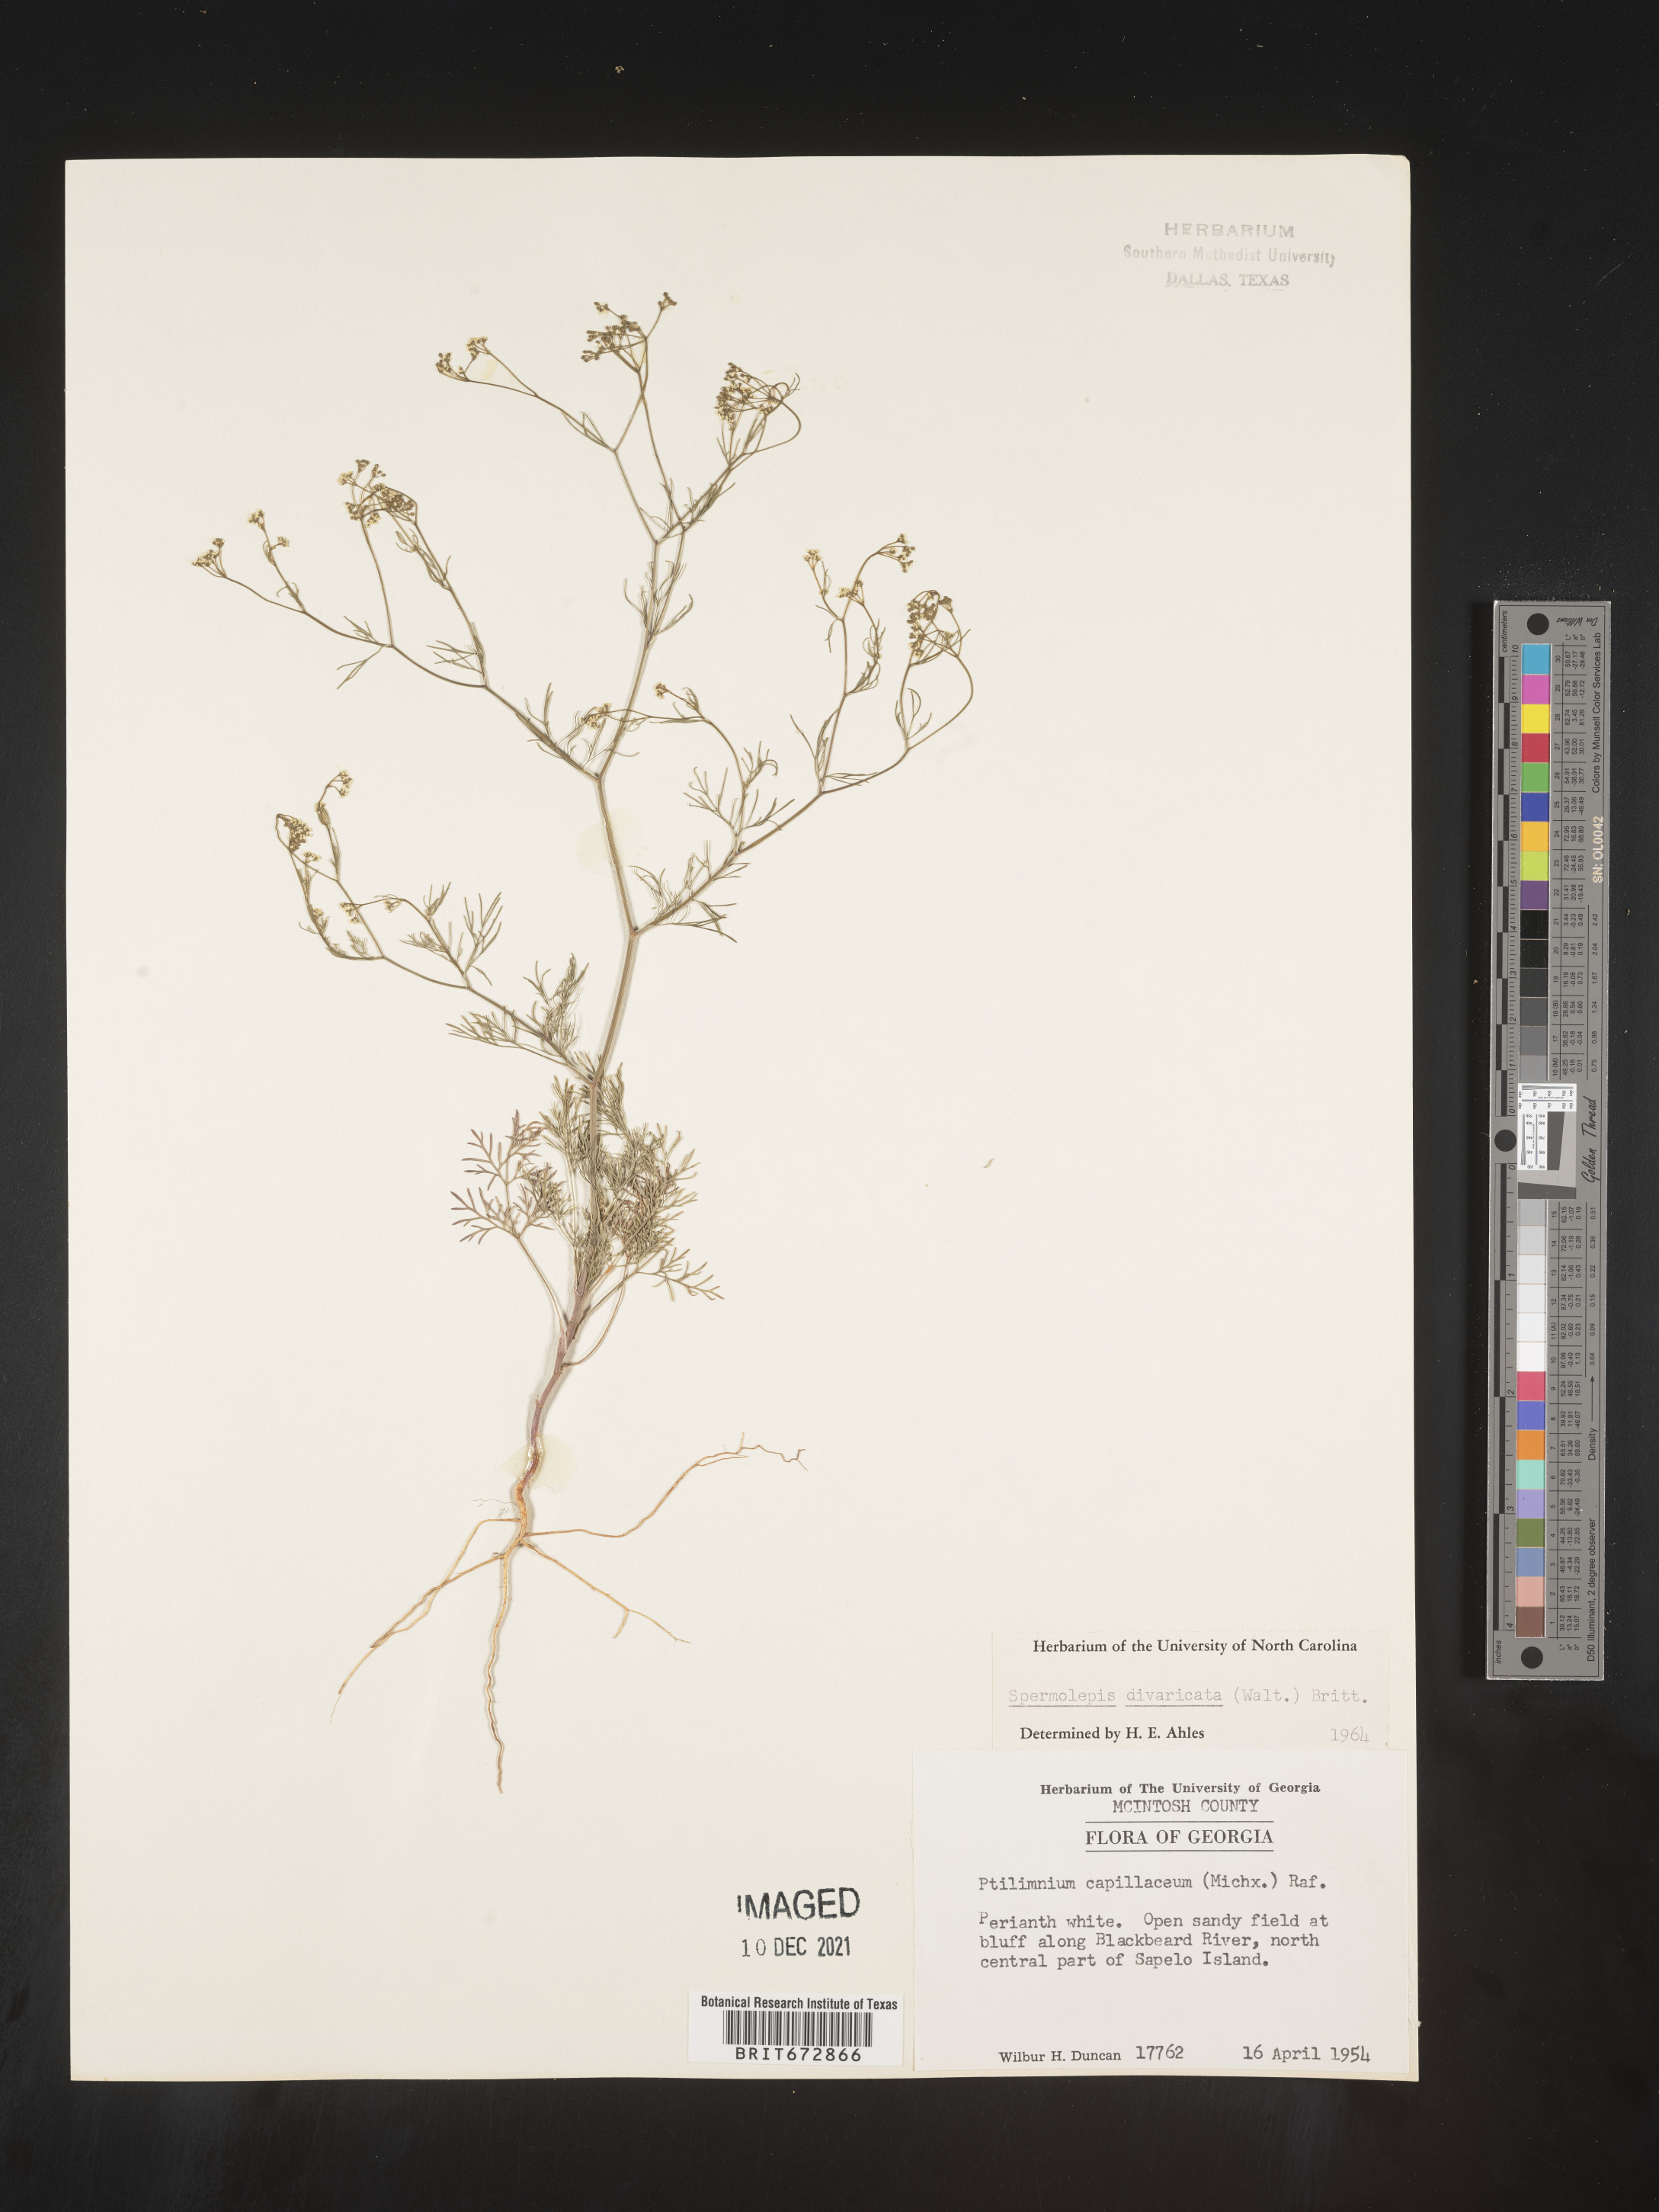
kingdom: Plantae
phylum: Tracheophyta
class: Magnoliopsida
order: Apiales
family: Apiaceae
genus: Spermolepis
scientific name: Spermolepis divaricata
